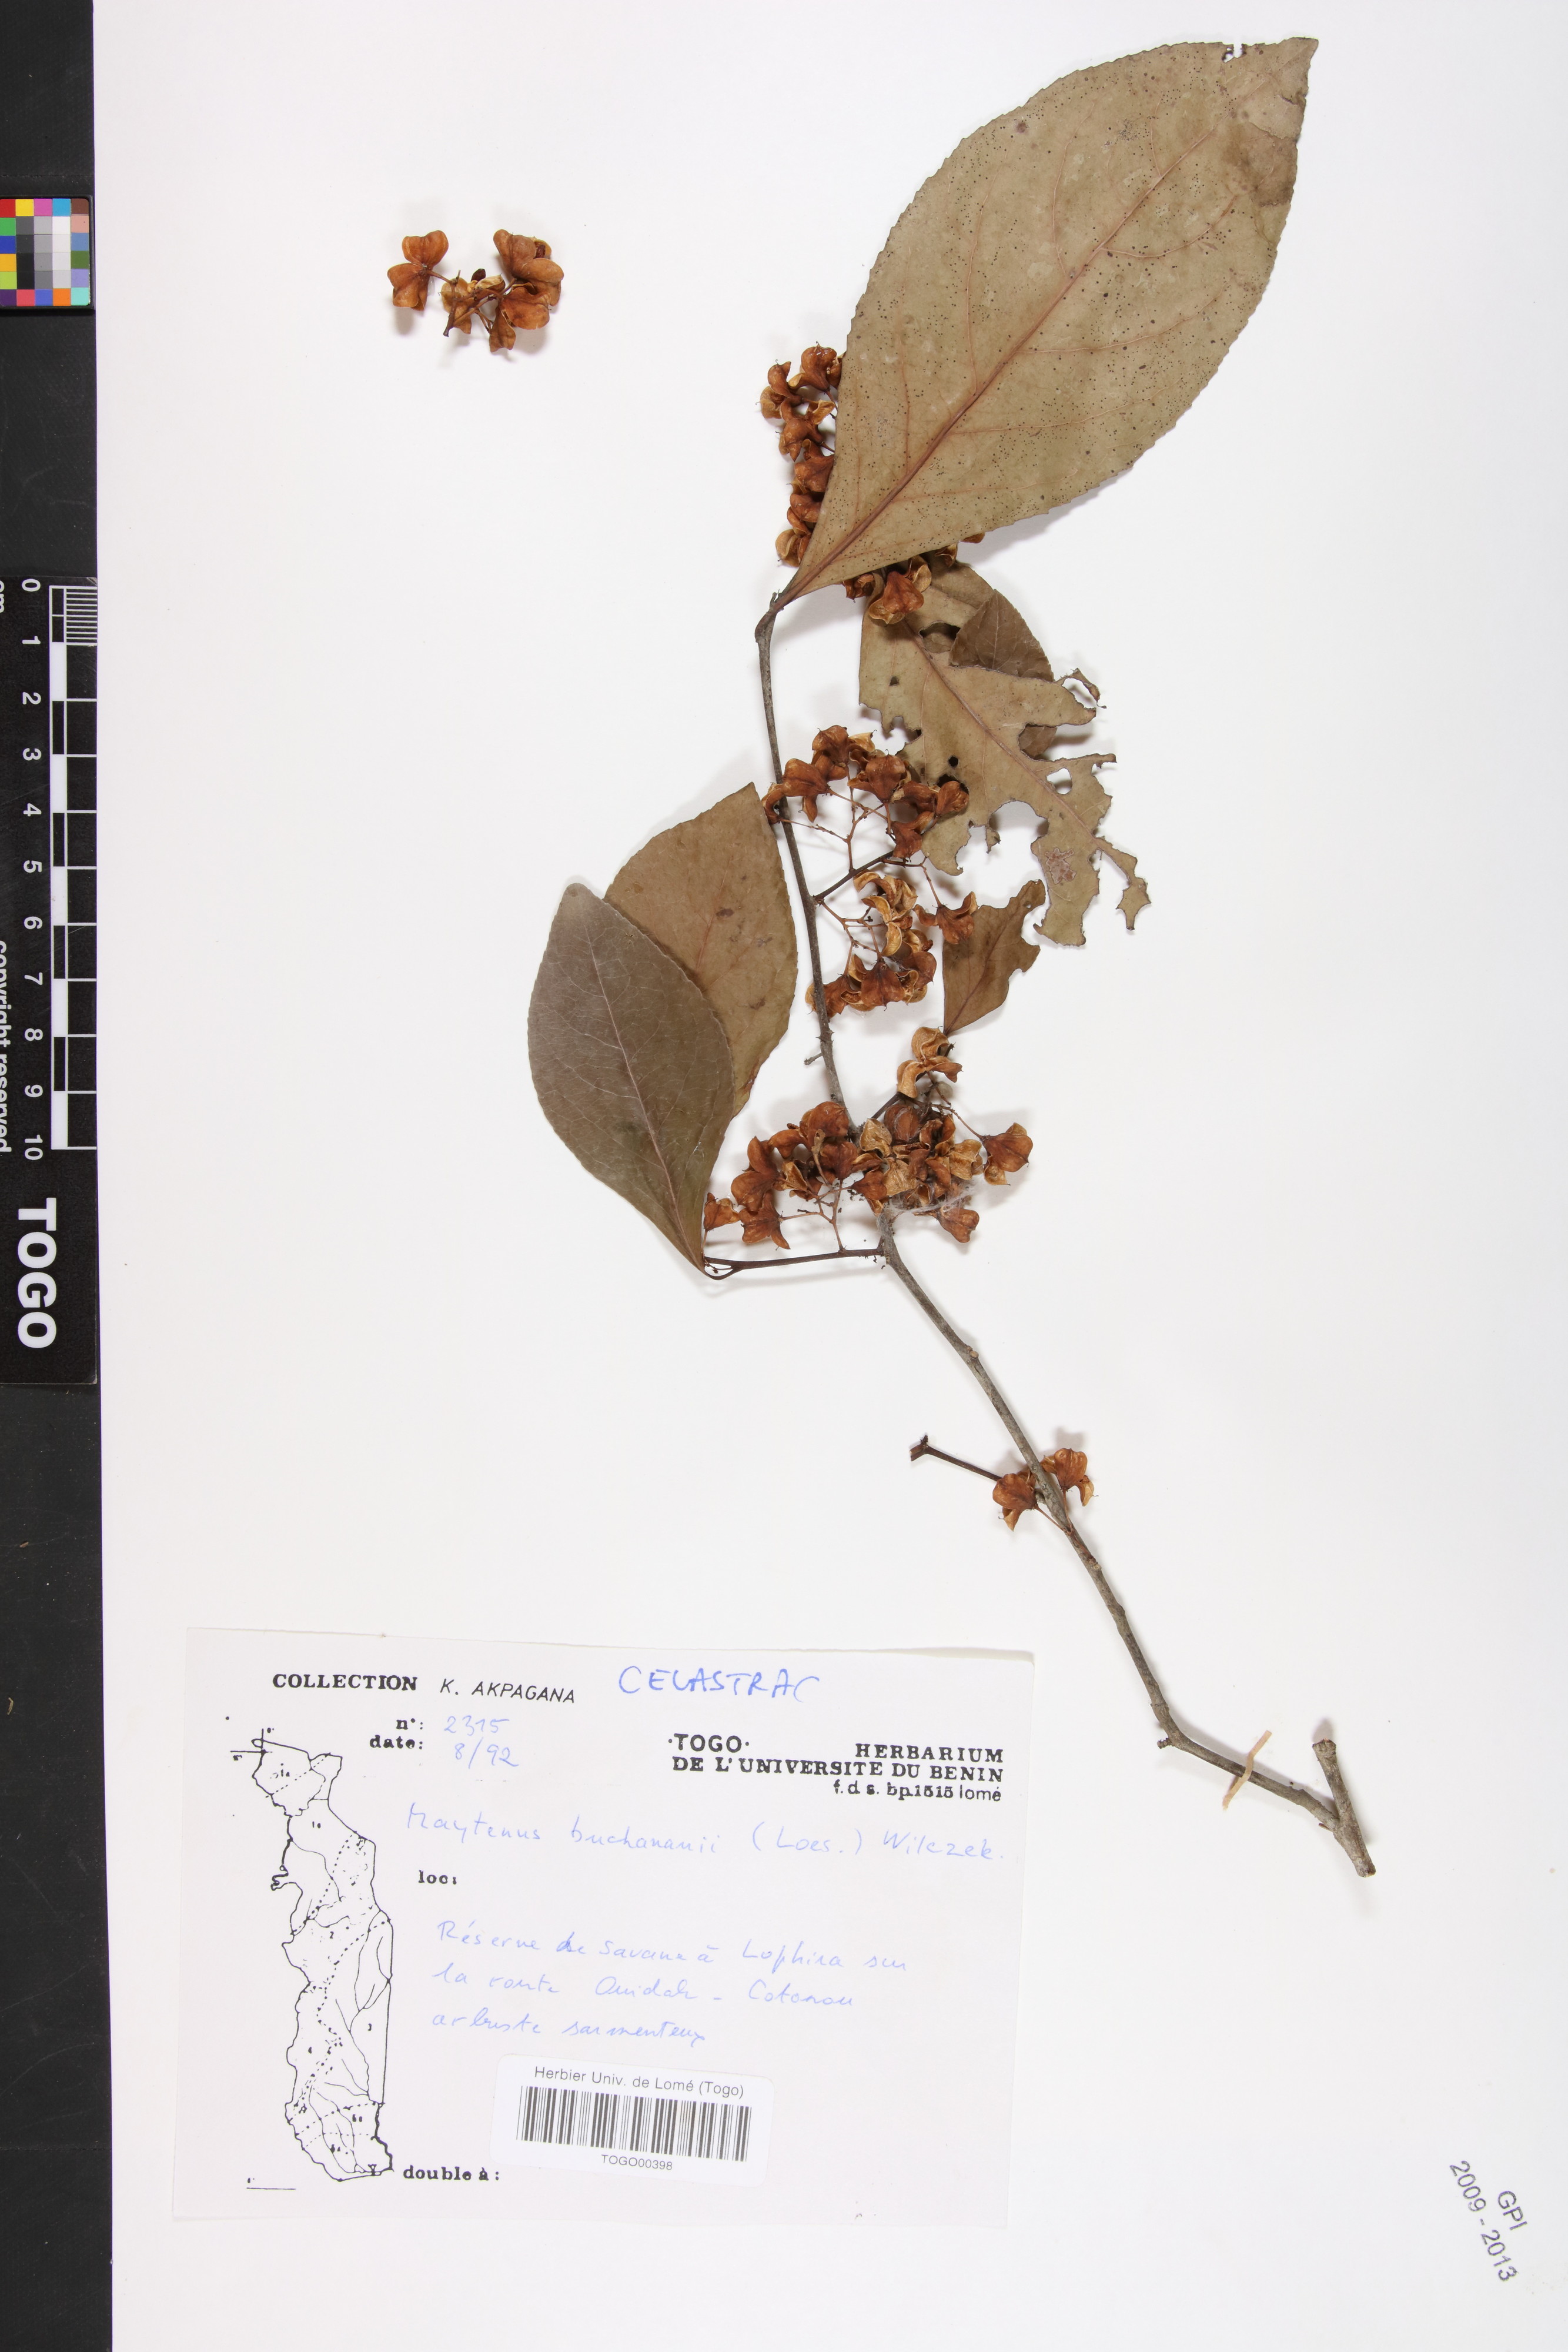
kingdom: Plantae
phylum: Tracheophyta
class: Magnoliopsida
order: Celastrales
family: Celastraceae
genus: Gymnosporia
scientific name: Gymnosporia buchananii
